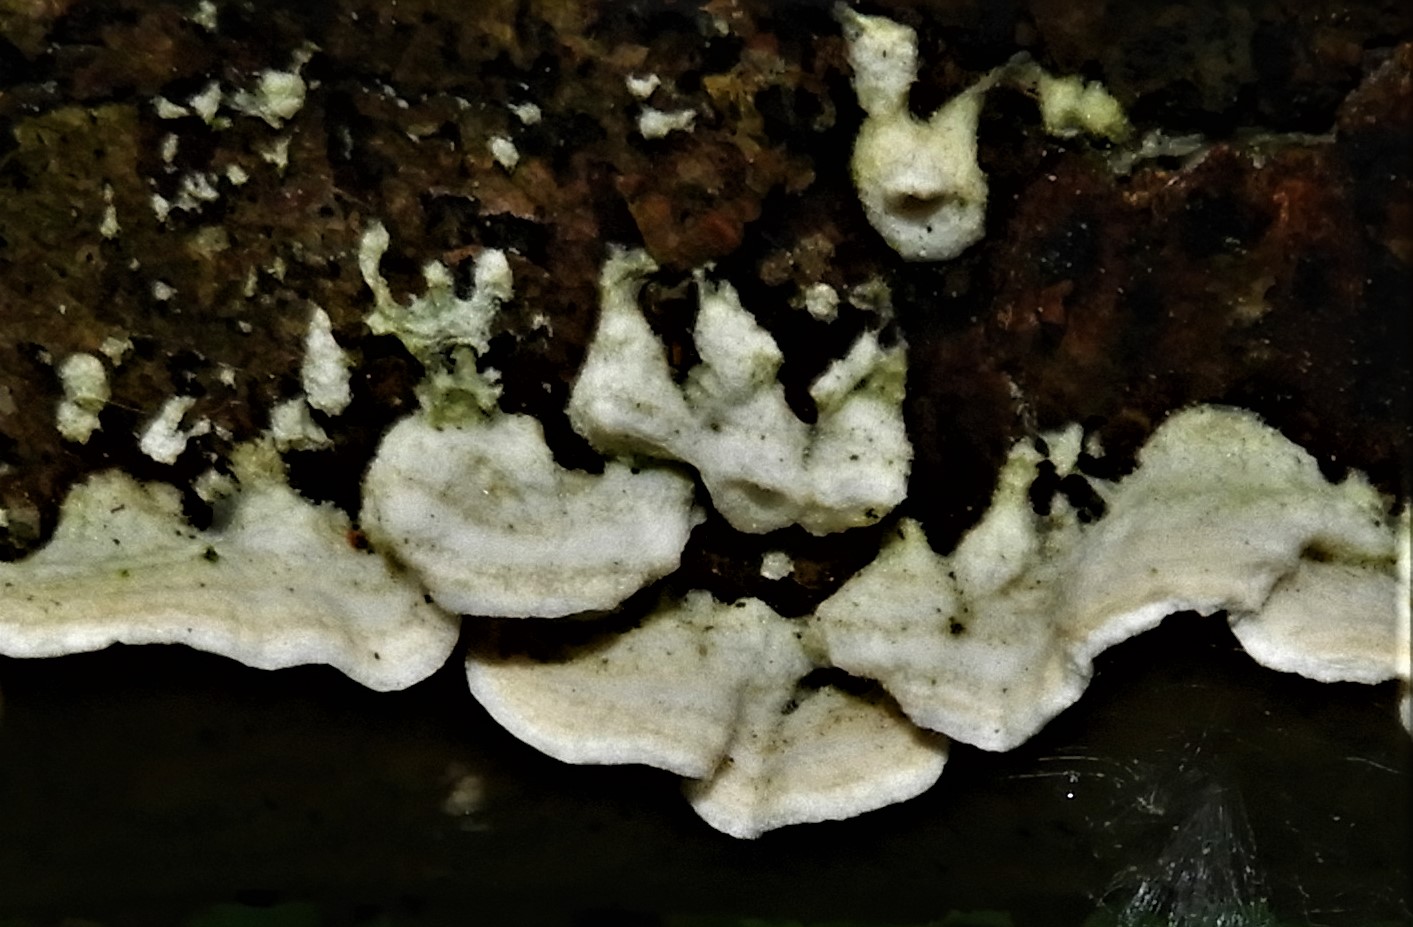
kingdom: Fungi
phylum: Basidiomycota
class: Agaricomycetes
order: Polyporales
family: Irpicaceae
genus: Byssomerulius
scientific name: Byssomerulius corium
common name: læder-åresvamp
